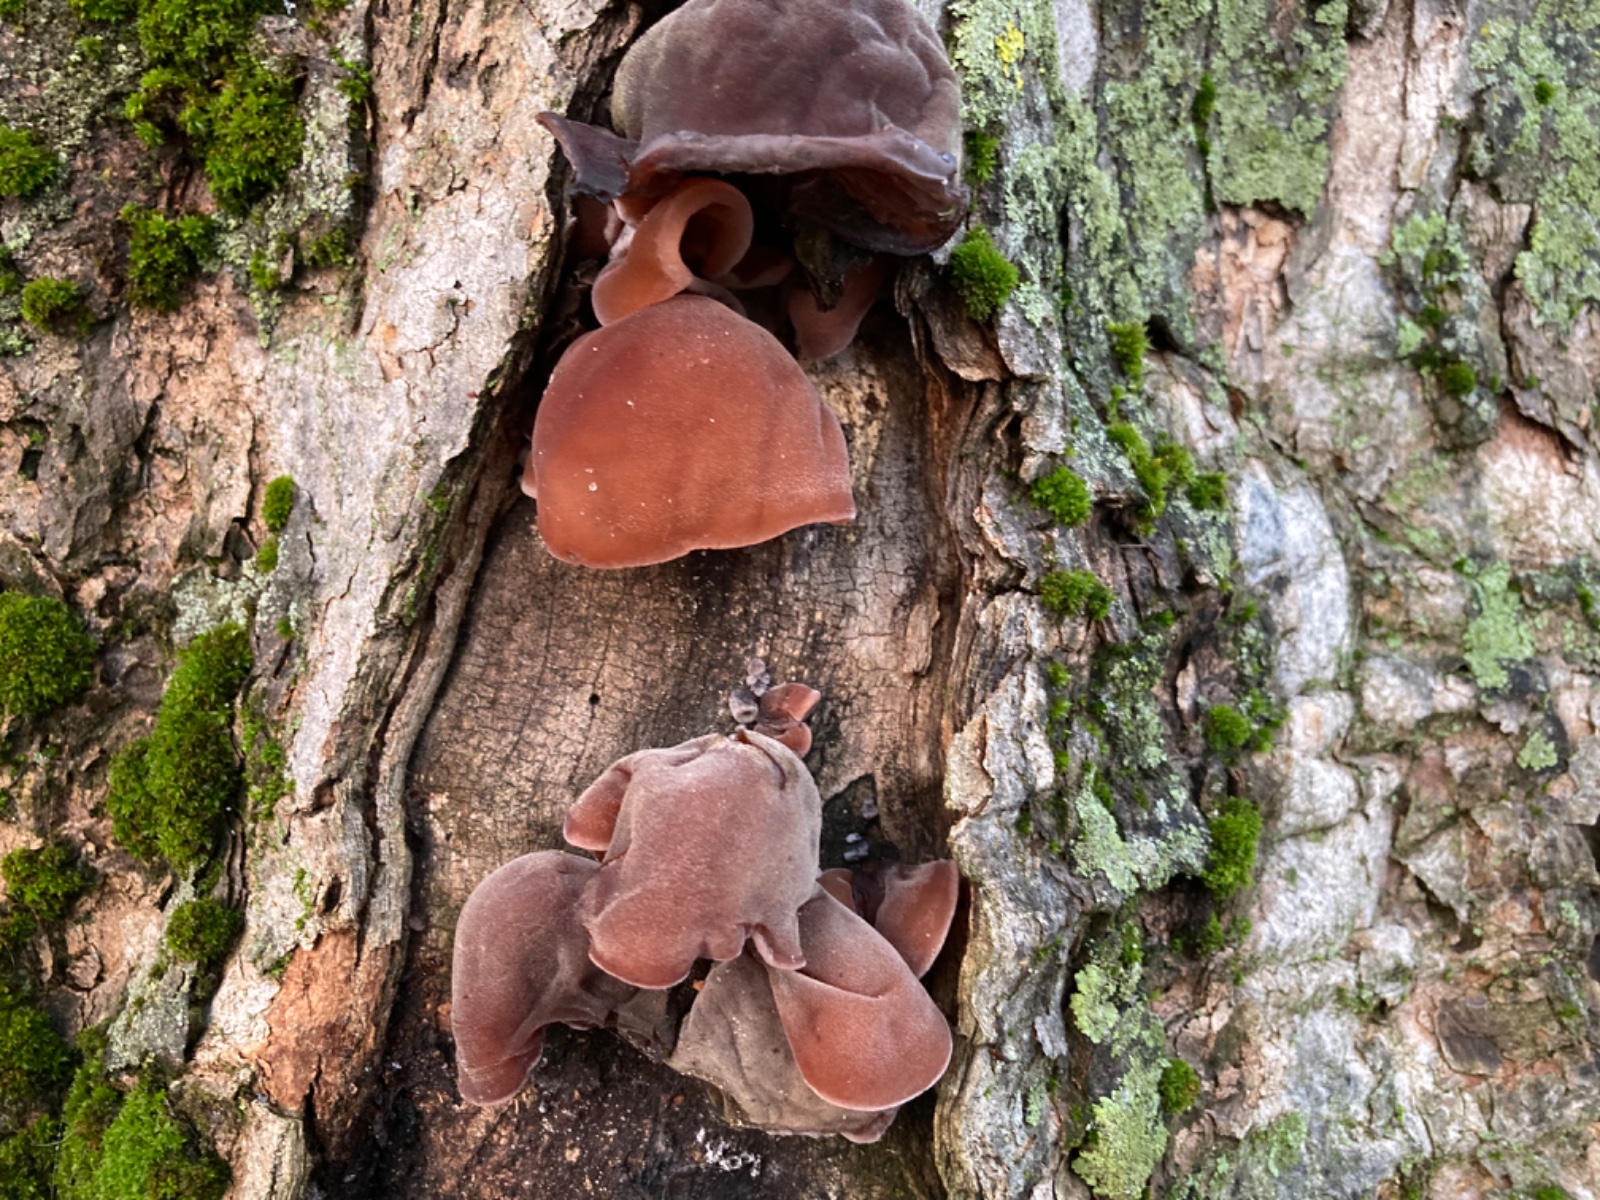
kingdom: Fungi
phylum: Basidiomycota
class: Agaricomycetes
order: Auriculariales
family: Auriculariaceae
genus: Auricularia
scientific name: Auricularia auricula-judae
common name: almindelig judasøre
